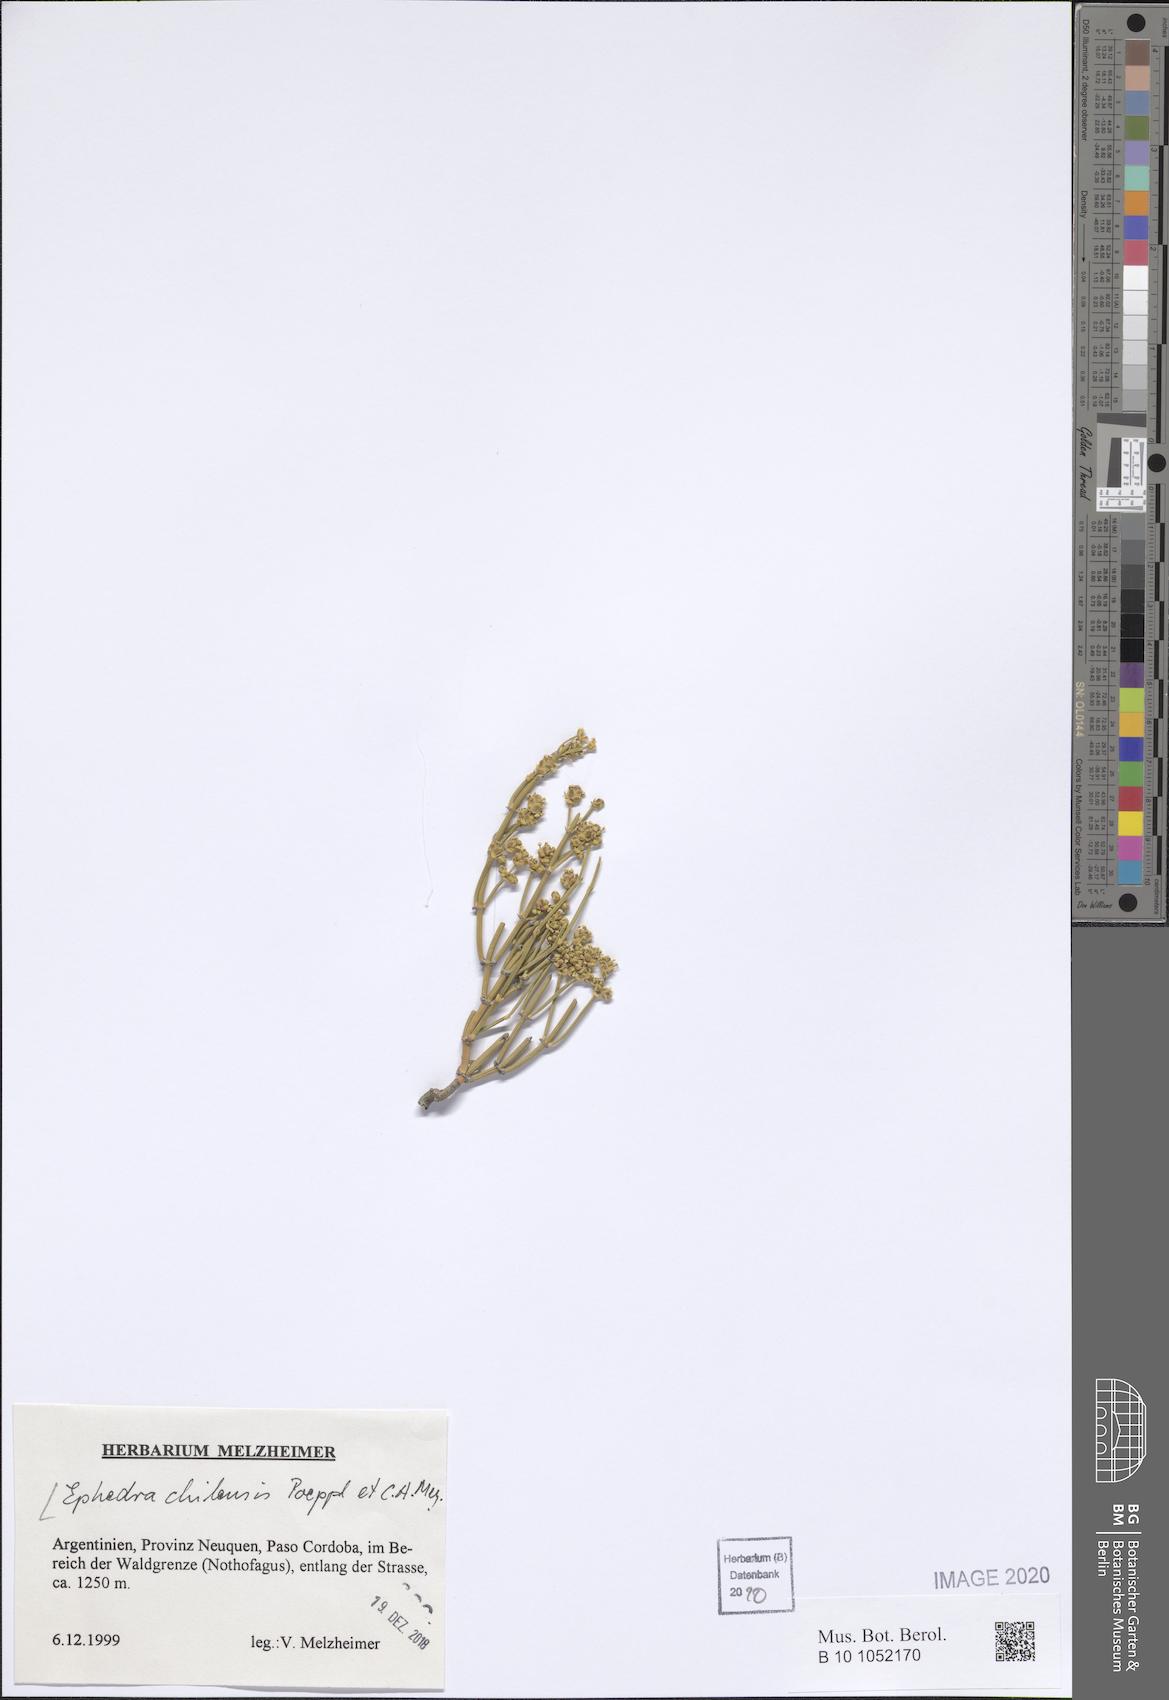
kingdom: Plantae
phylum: Tracheophyta
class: Gnetopsida
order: Ephedrales
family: Ephedraceae
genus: Ephedra
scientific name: Ephedra chilensis
